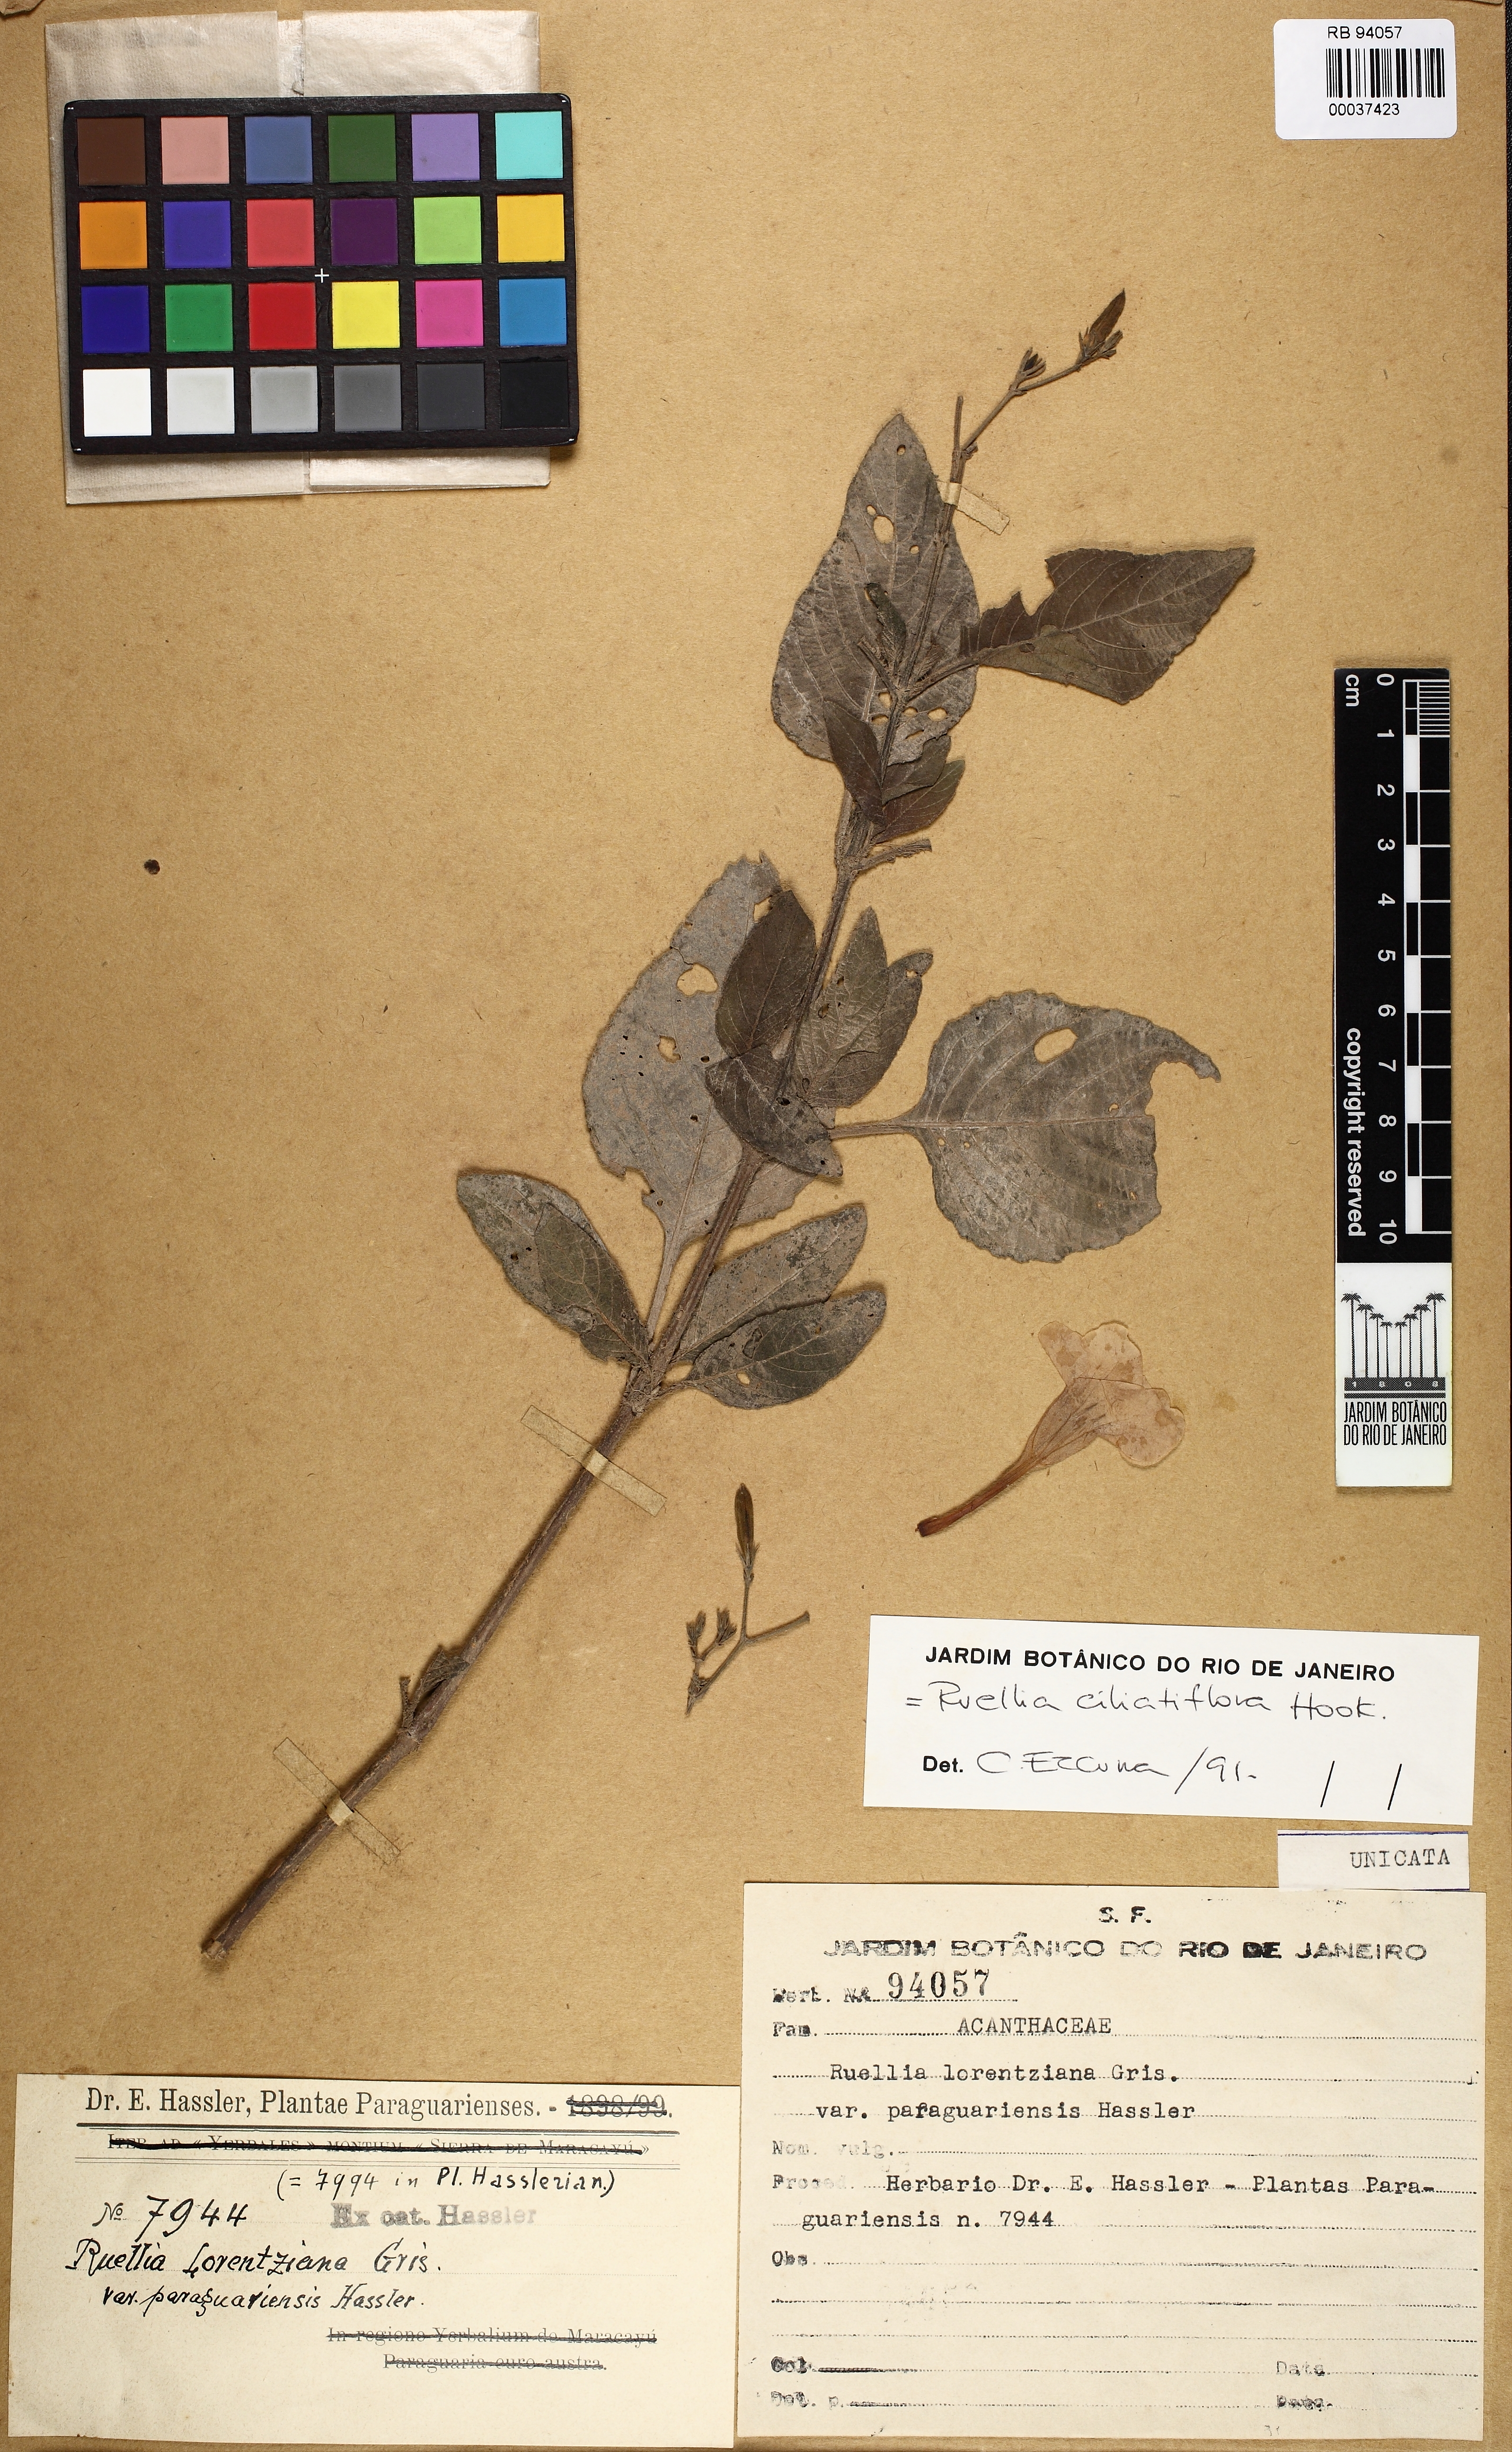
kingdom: Plantae
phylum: Tracheophyta
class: Magnoliopsida
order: Lamiales
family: Acanthaceae
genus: Ruellia
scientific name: Ruellia ciliatiflora
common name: Hairyflower wild petunia
